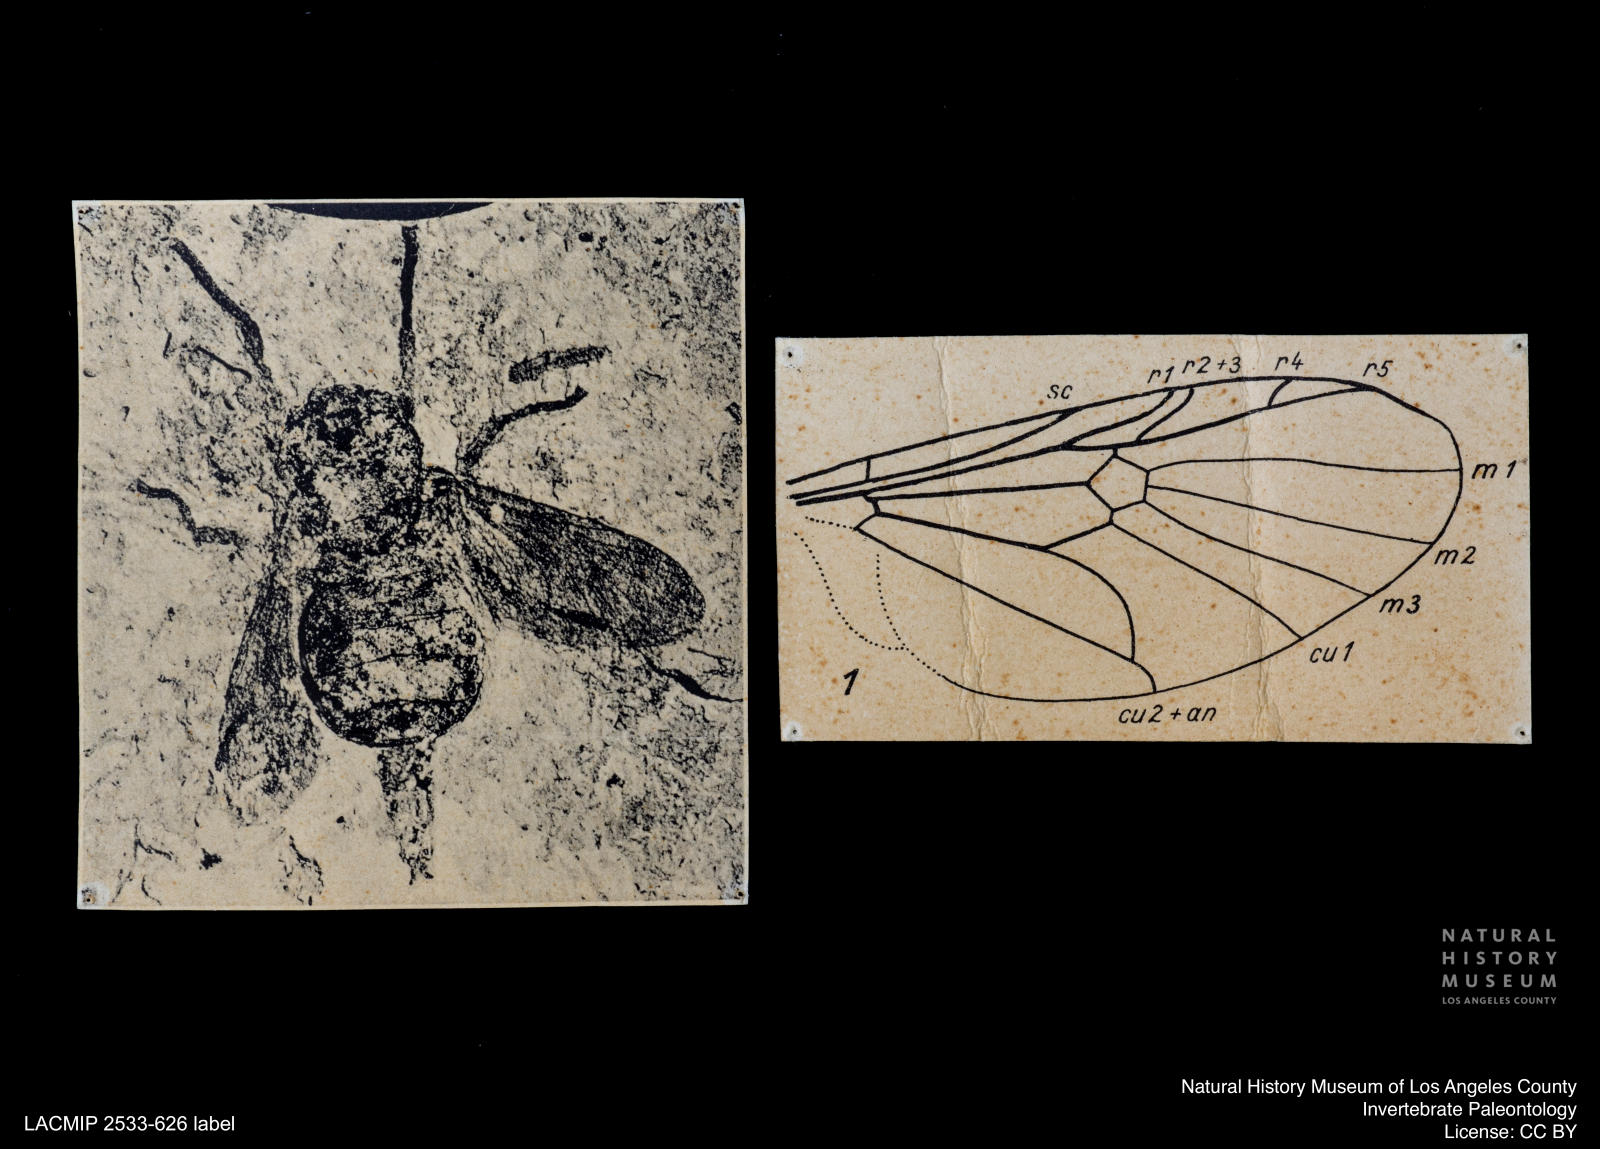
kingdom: Animalia
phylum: Arthropoda
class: Insecta
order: Diptera
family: Stratiomyidae
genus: Stratiomys
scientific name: Stratiomys pentadiscalia
